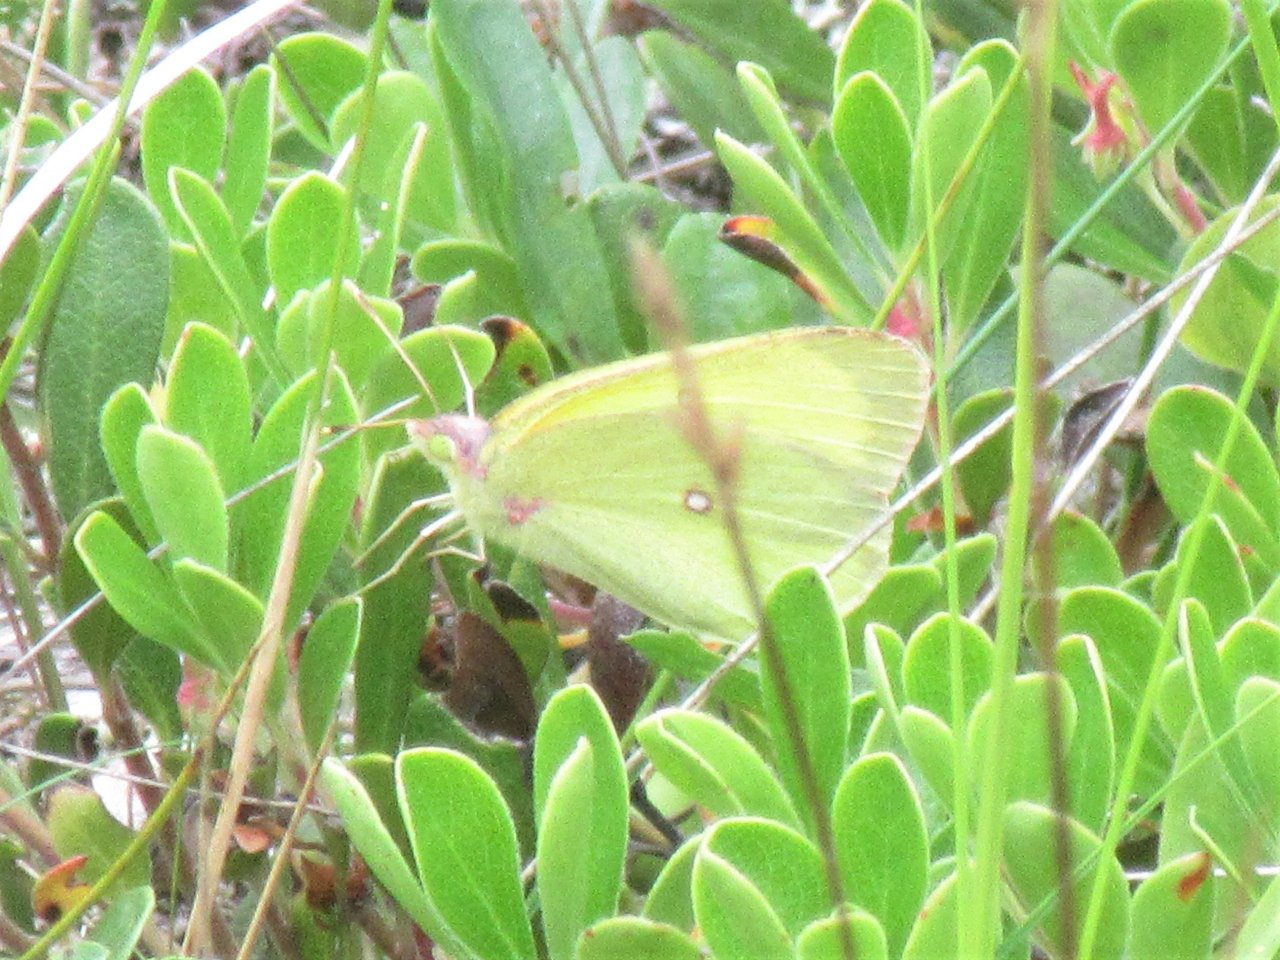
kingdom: Animalia
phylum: Arthropoda
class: Insecta
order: Lepidoptera
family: Pieridae
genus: Colias
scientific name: Colias philodice
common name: Clouded Sulphur
